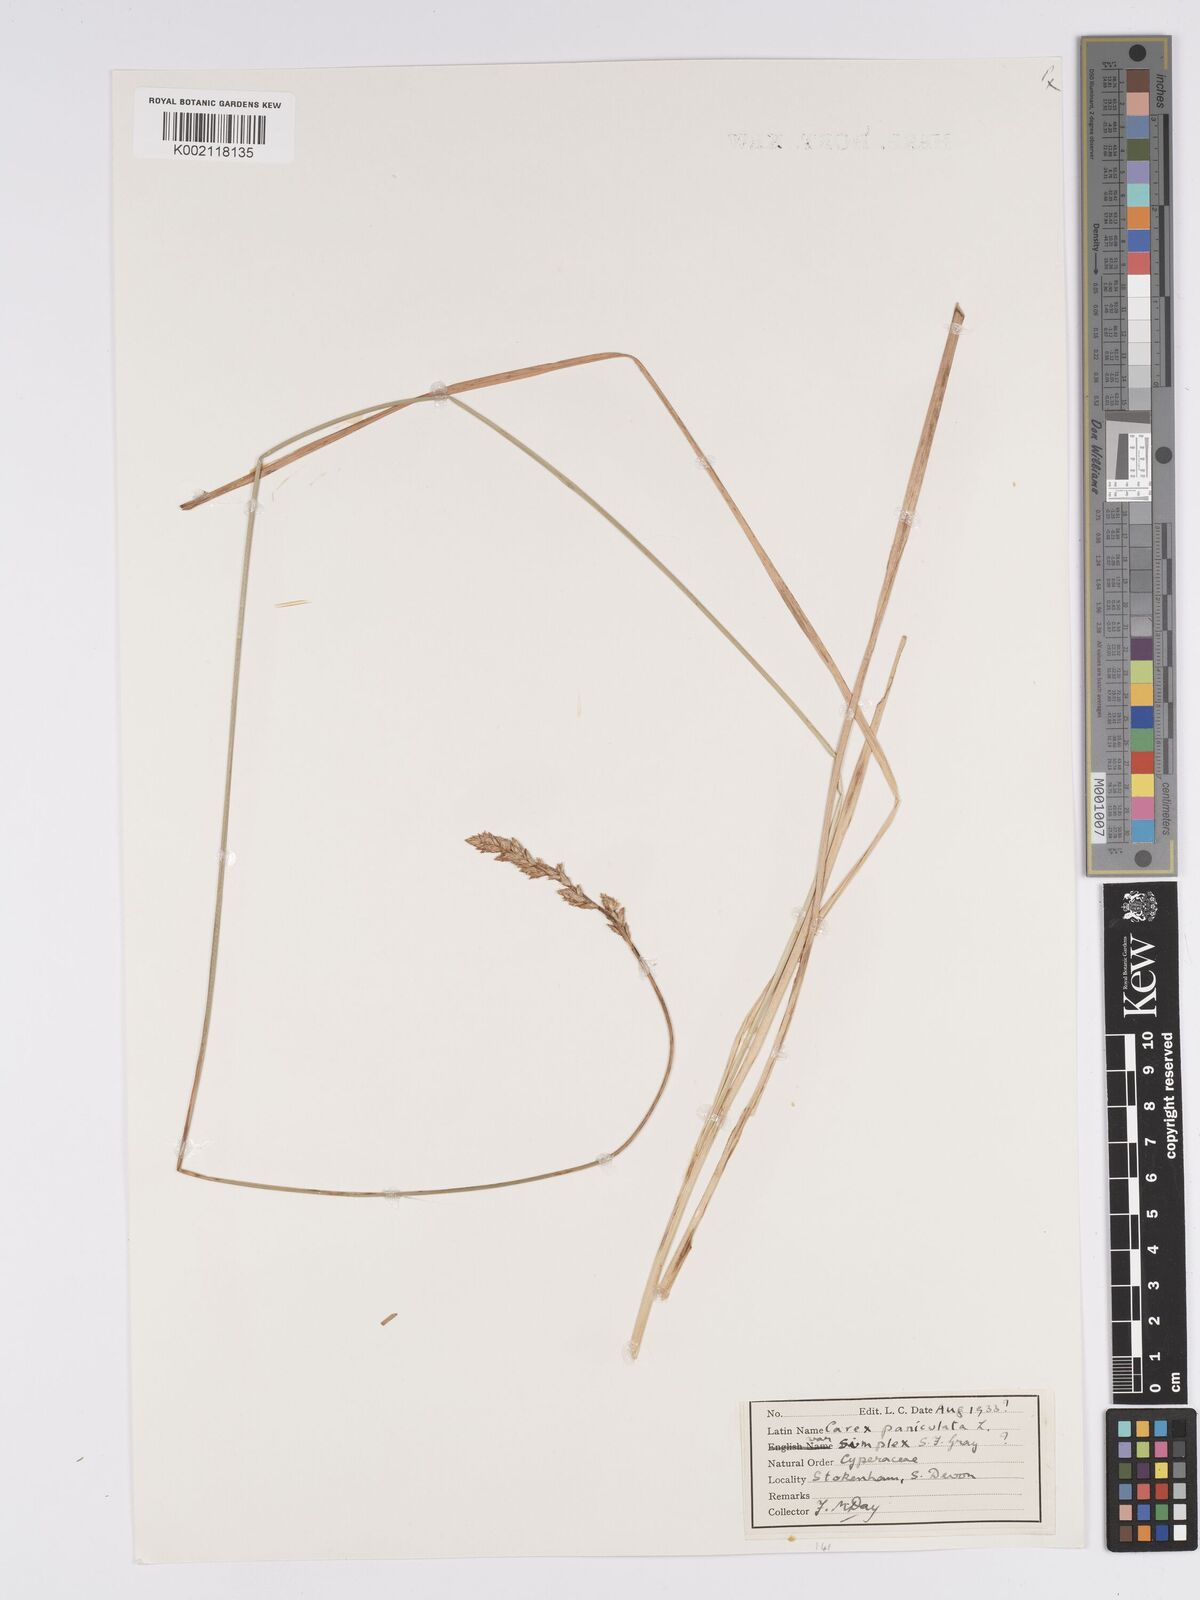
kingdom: Plantae
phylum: Tracheophyta
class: Liliopsida
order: Poales
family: Cyperaceae
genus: Carex
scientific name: Carex paniculata
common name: Greater tussock-sedge
